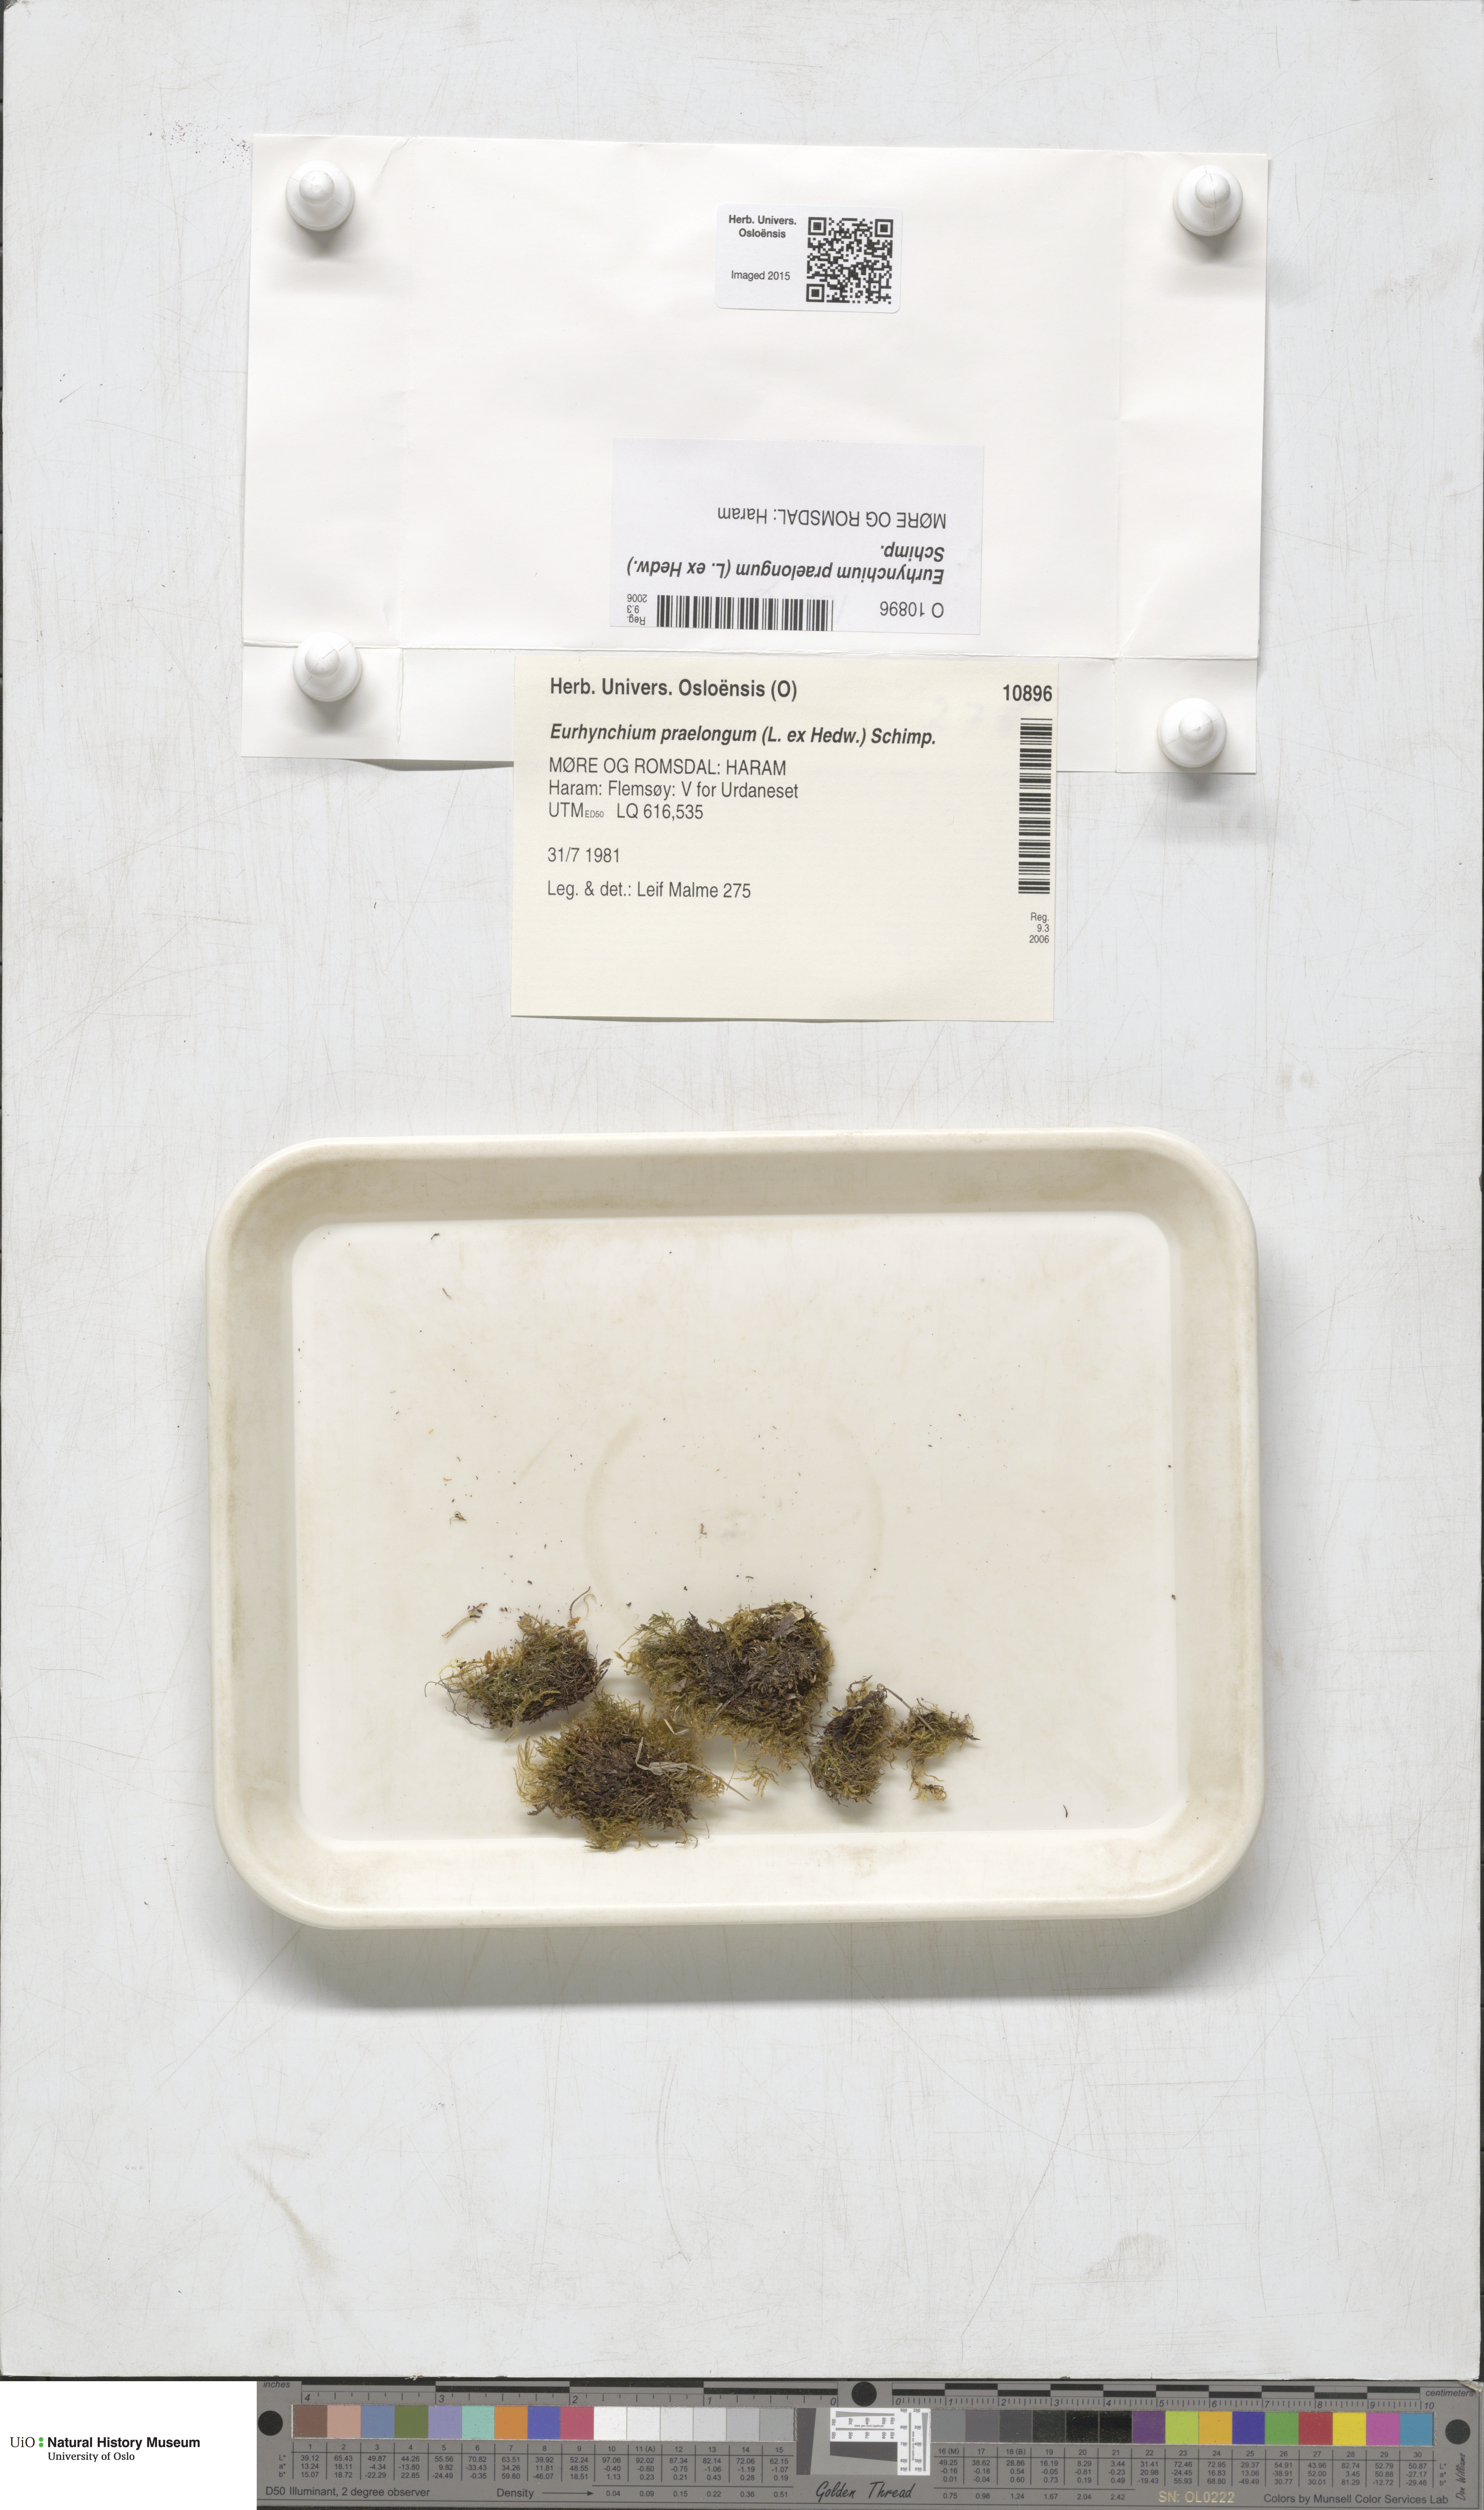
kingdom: Plantae
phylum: Bryophyta
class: Bryopsida
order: Hypnales
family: Brachytheciaceae
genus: Kindbergia
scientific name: Kindbergia praelonga
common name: Slender beaked moss
